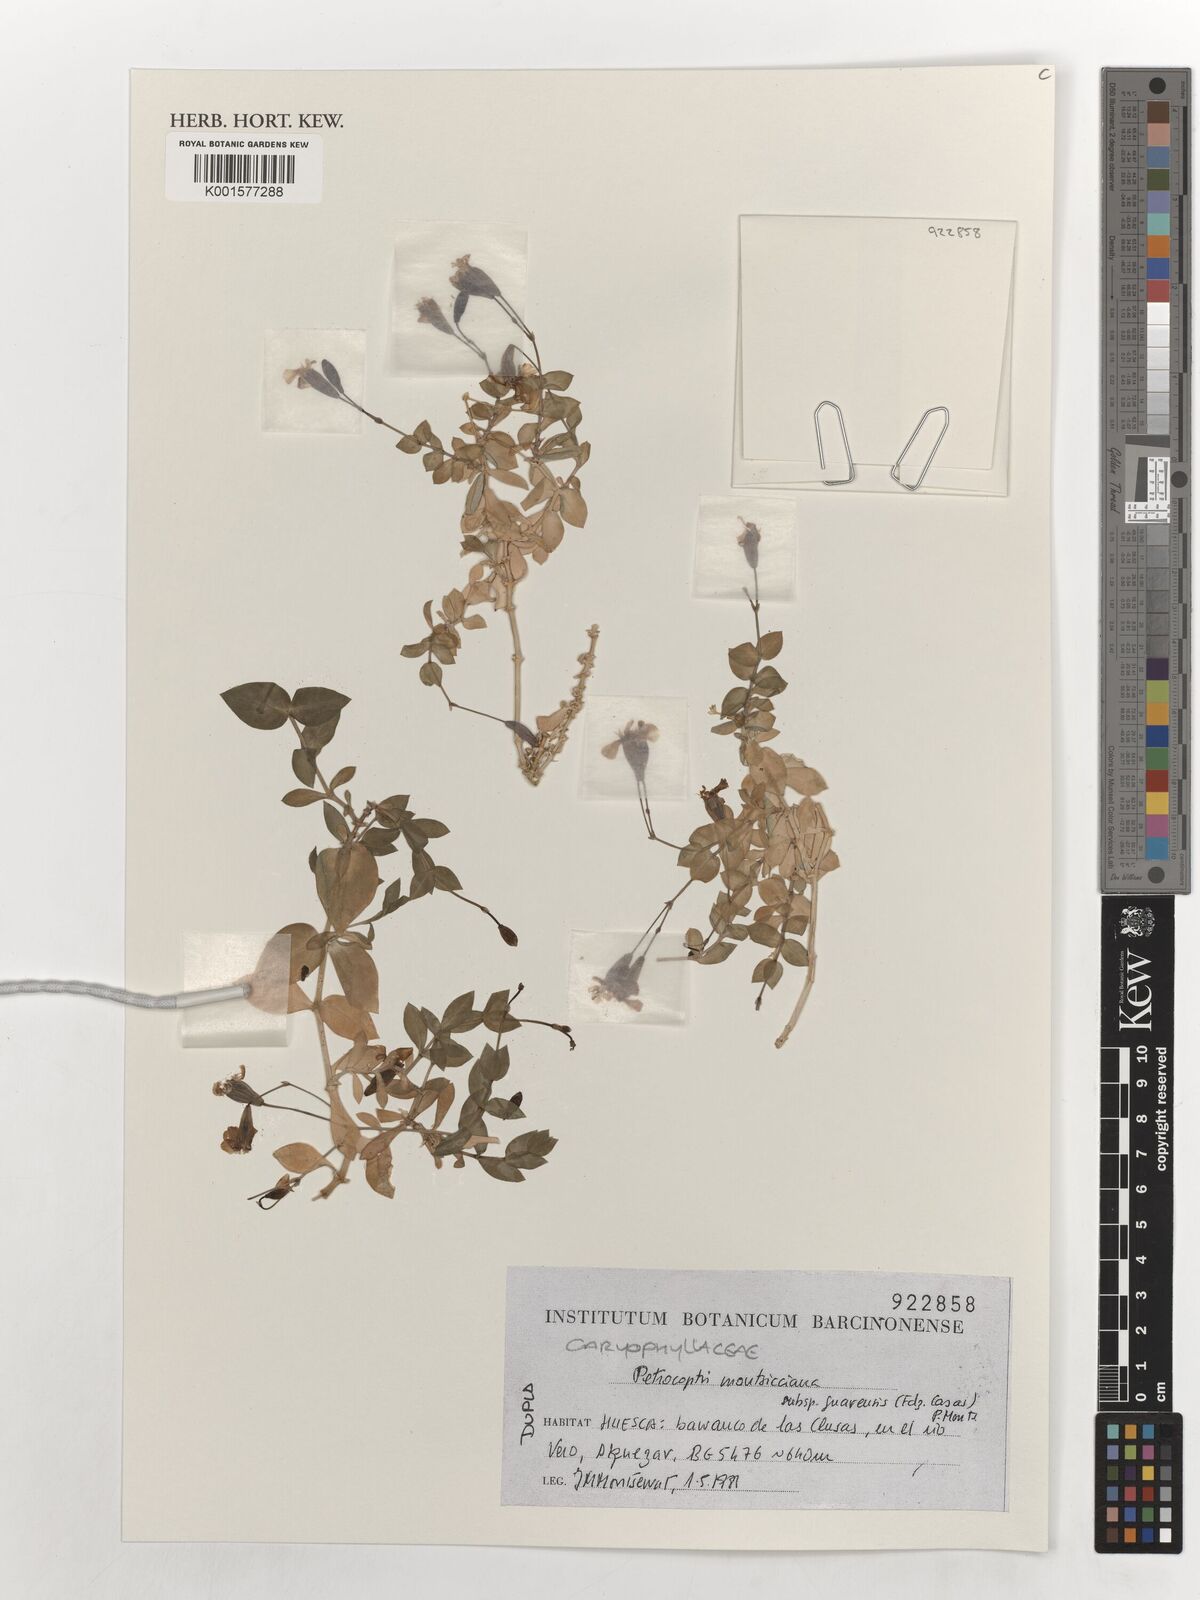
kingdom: Plantae
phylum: Tracheophyta
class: Magnoliopsida
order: Caryophyllales
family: Caryophyllaceae
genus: Petrocoptis
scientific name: Petrocoptis pardoi
